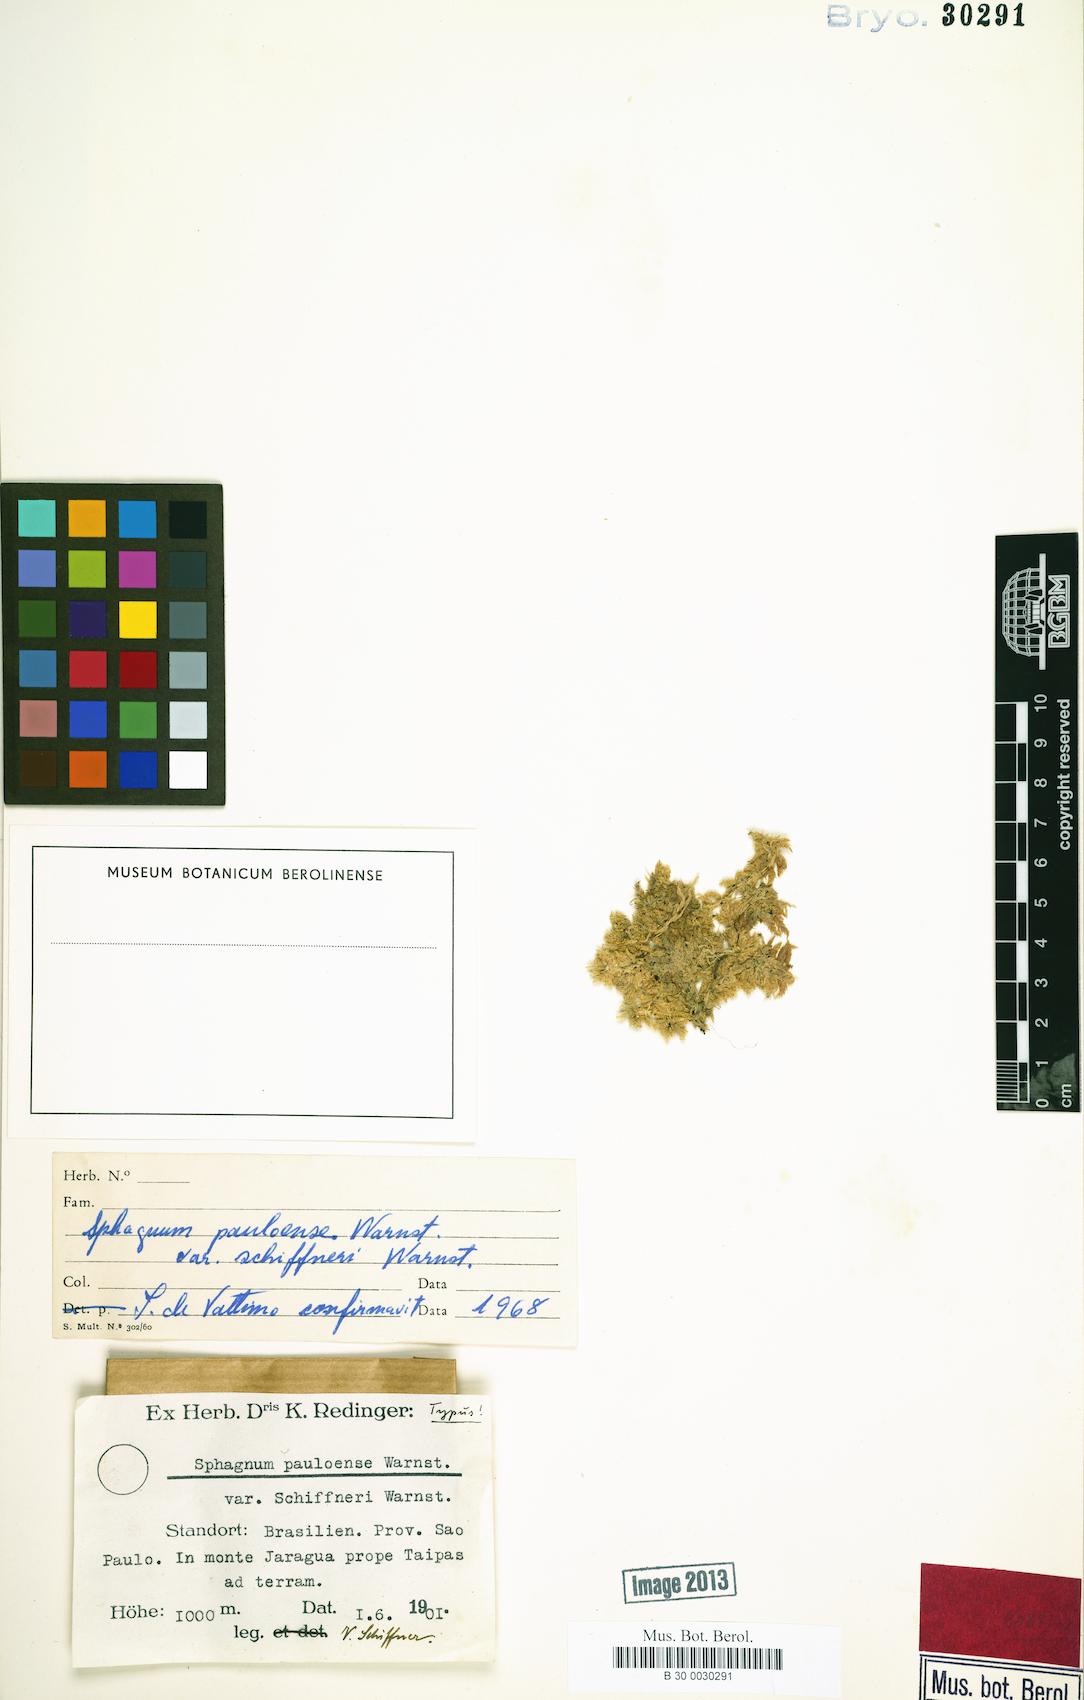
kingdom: Plantae
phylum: Bryophyta
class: Sphagnopsida
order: Sphagnales
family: Sphagnaceae
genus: Sphagnum
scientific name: Sphagnum perichaetiale
